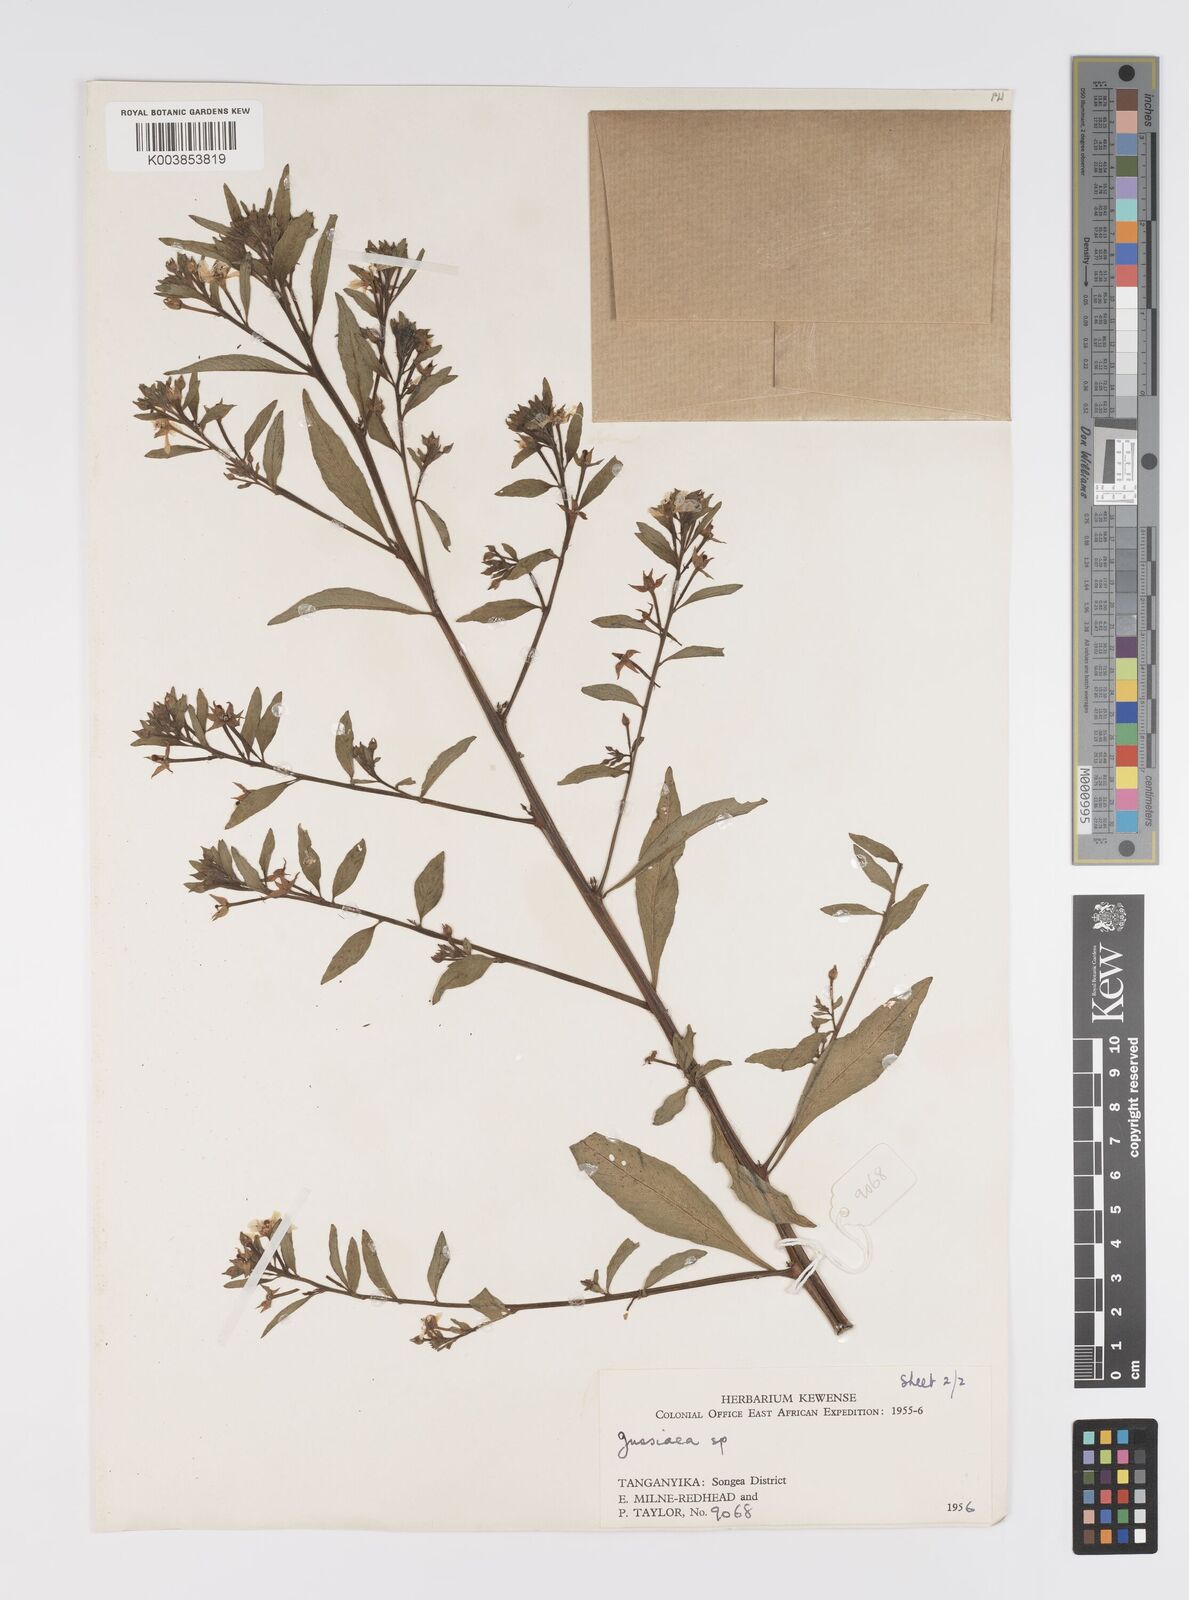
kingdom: Plantae
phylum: Tracheophyta
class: Magnoliopsida
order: Myrtales
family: Onagraceae
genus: Ludwigia
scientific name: Ludwigia
